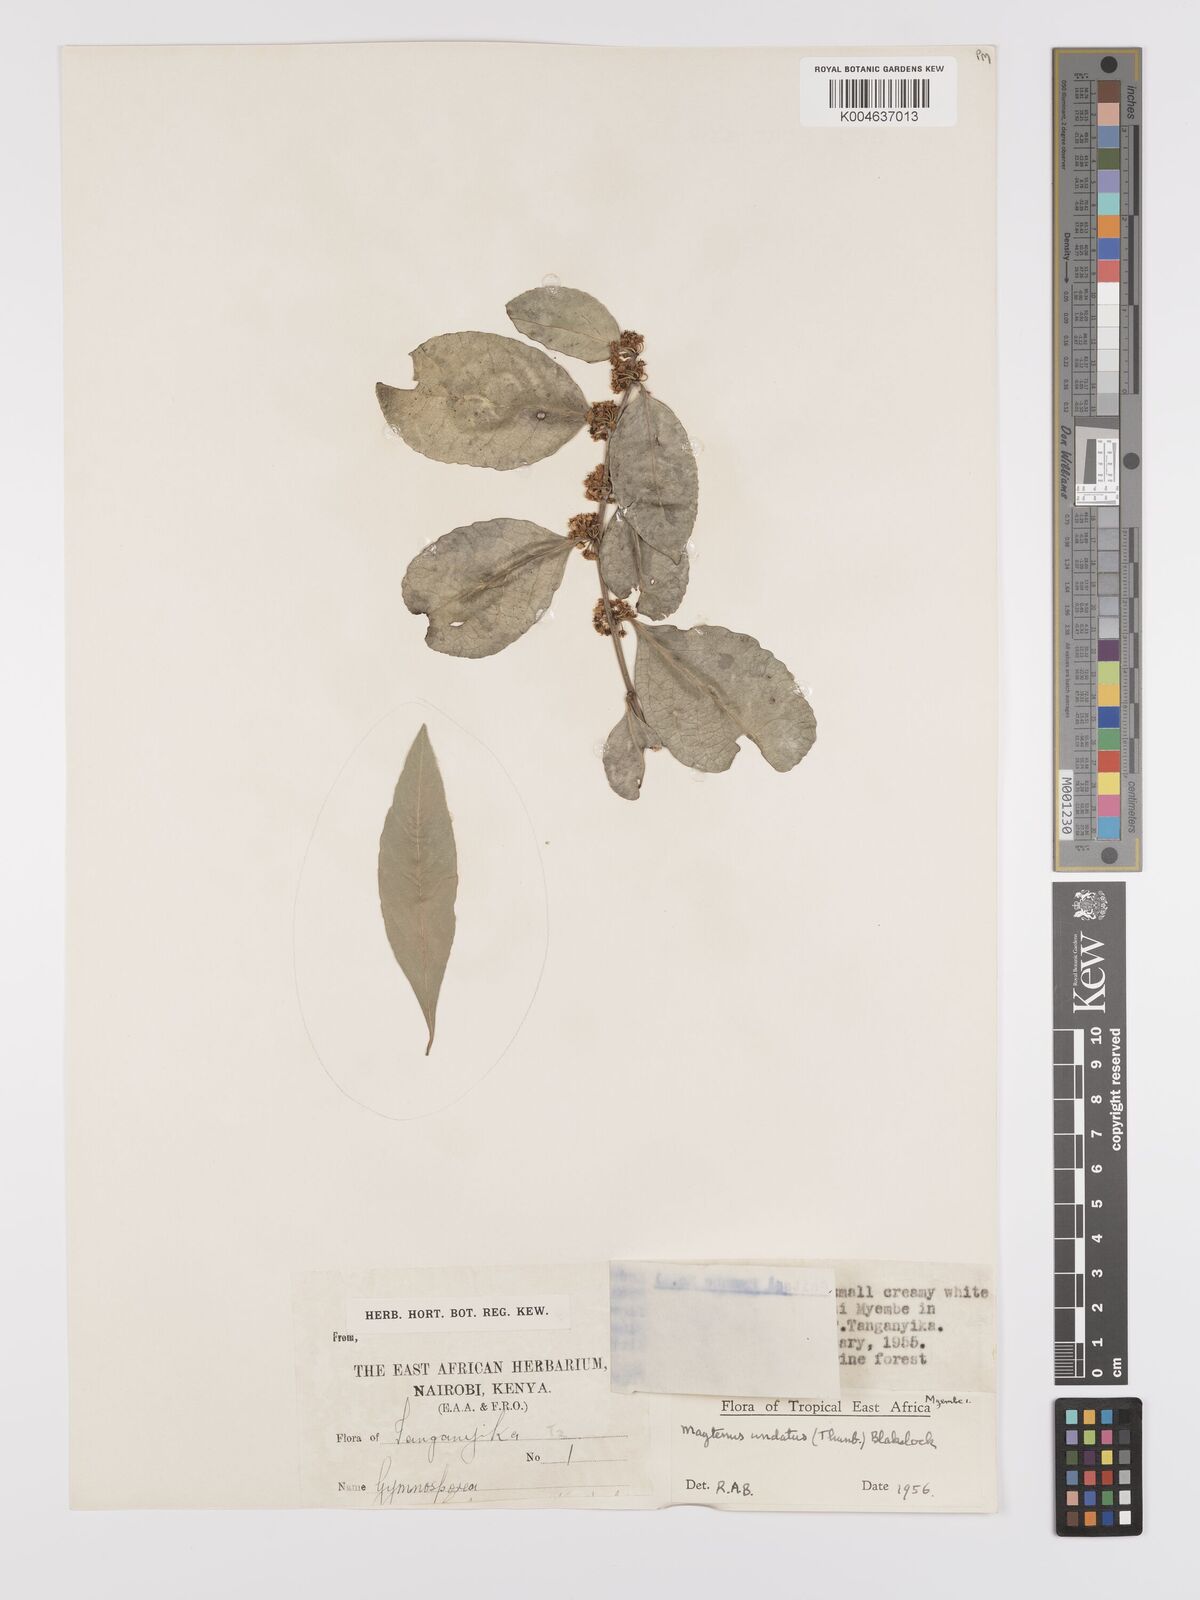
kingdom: Plantae
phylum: Tracheophyta
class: Magnoliopsida
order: Celastrales
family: Celastraceae
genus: Gymnosporia
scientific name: Gymnosporia undata
